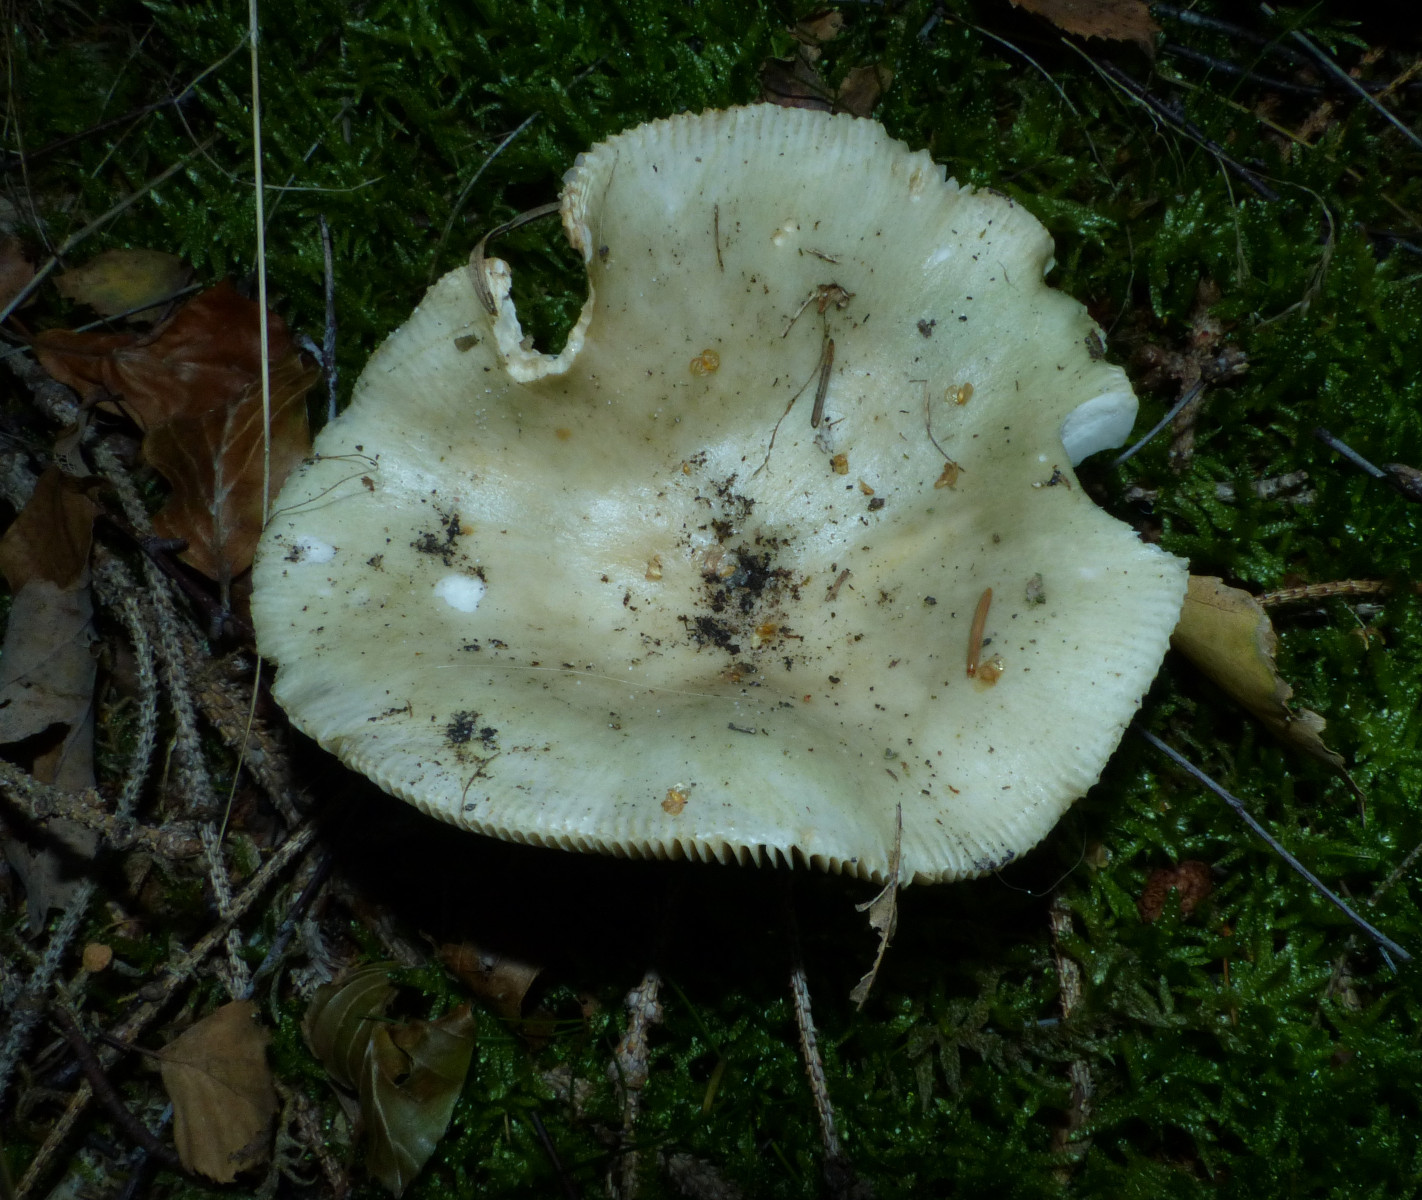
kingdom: Fungi
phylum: Basidiomycota
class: Agaricomycetes
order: Russulales
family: Russulaceae
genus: Russula
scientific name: Russula aeruginea
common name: græsgrøn skørhat
